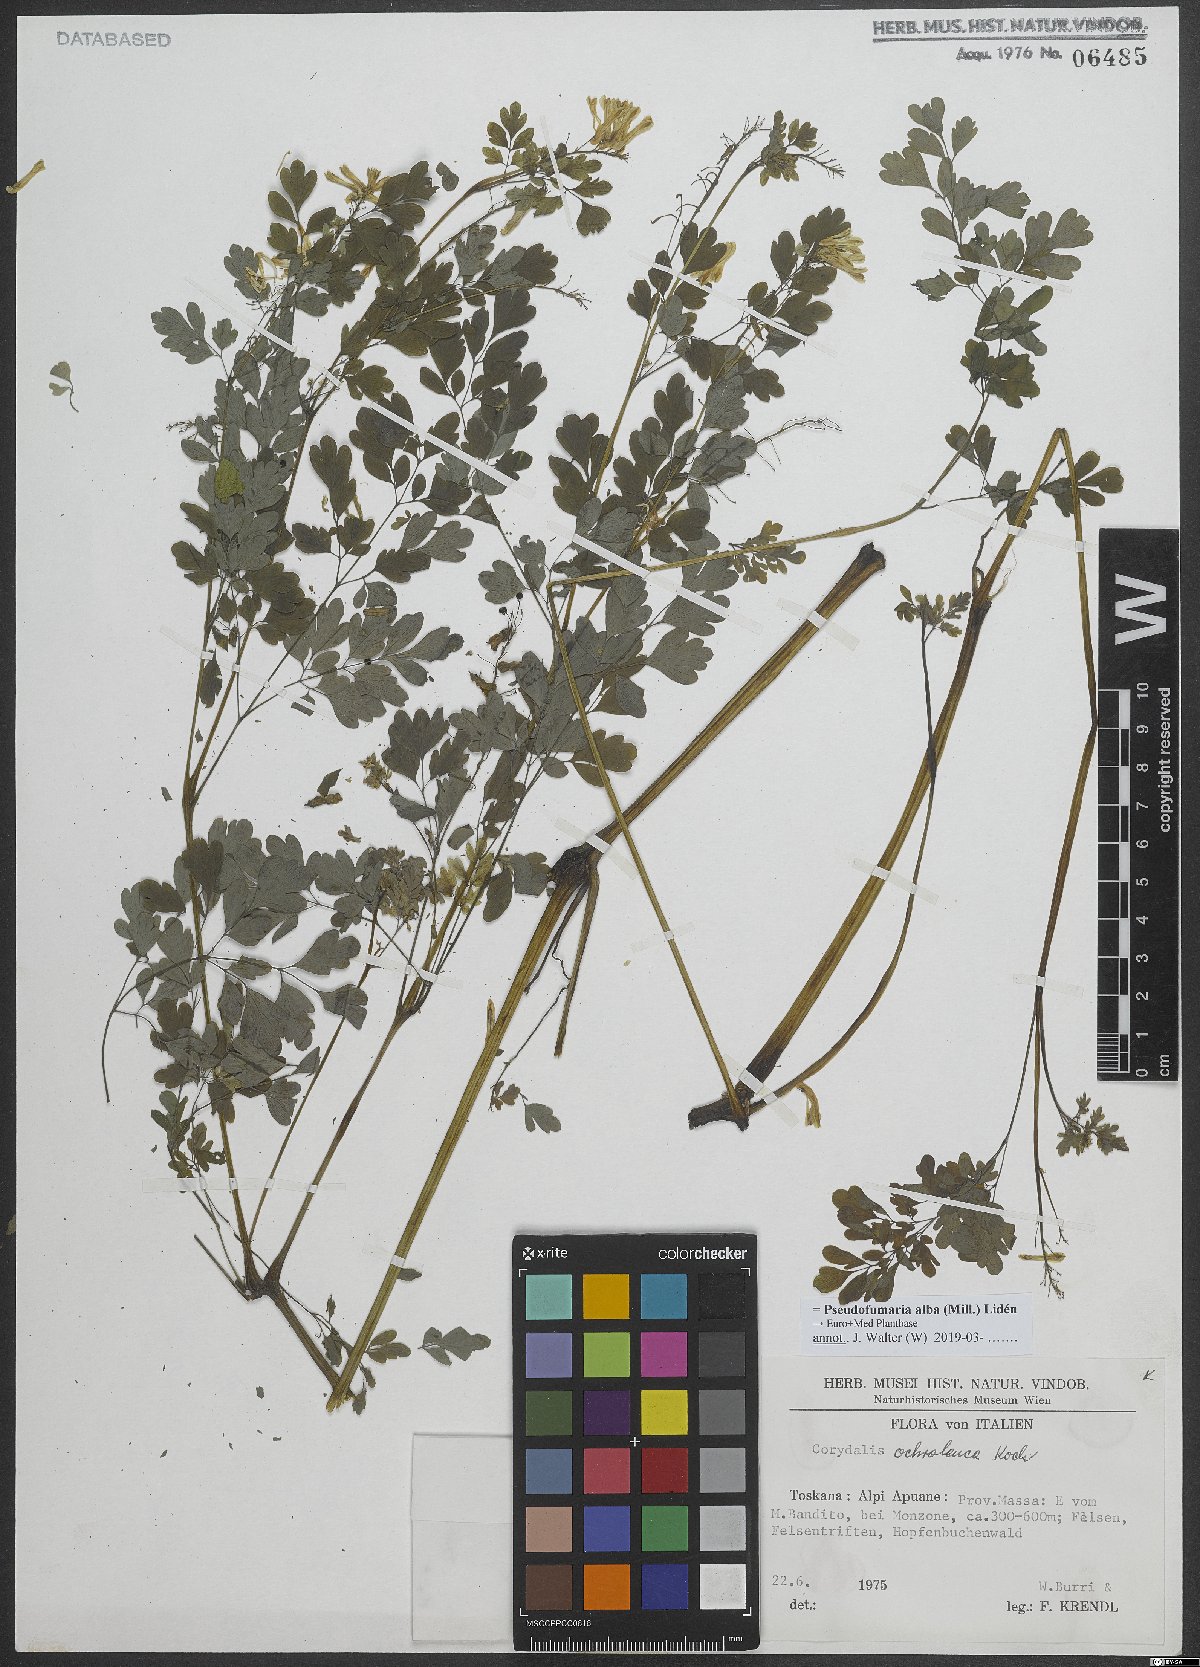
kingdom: Plantae
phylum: Tracheophyta
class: Magnoliopsida
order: Ranunculales
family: Papaveraceae
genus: Pseudofumaria
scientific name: Pseudofumaria alba
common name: Pale corydalis
